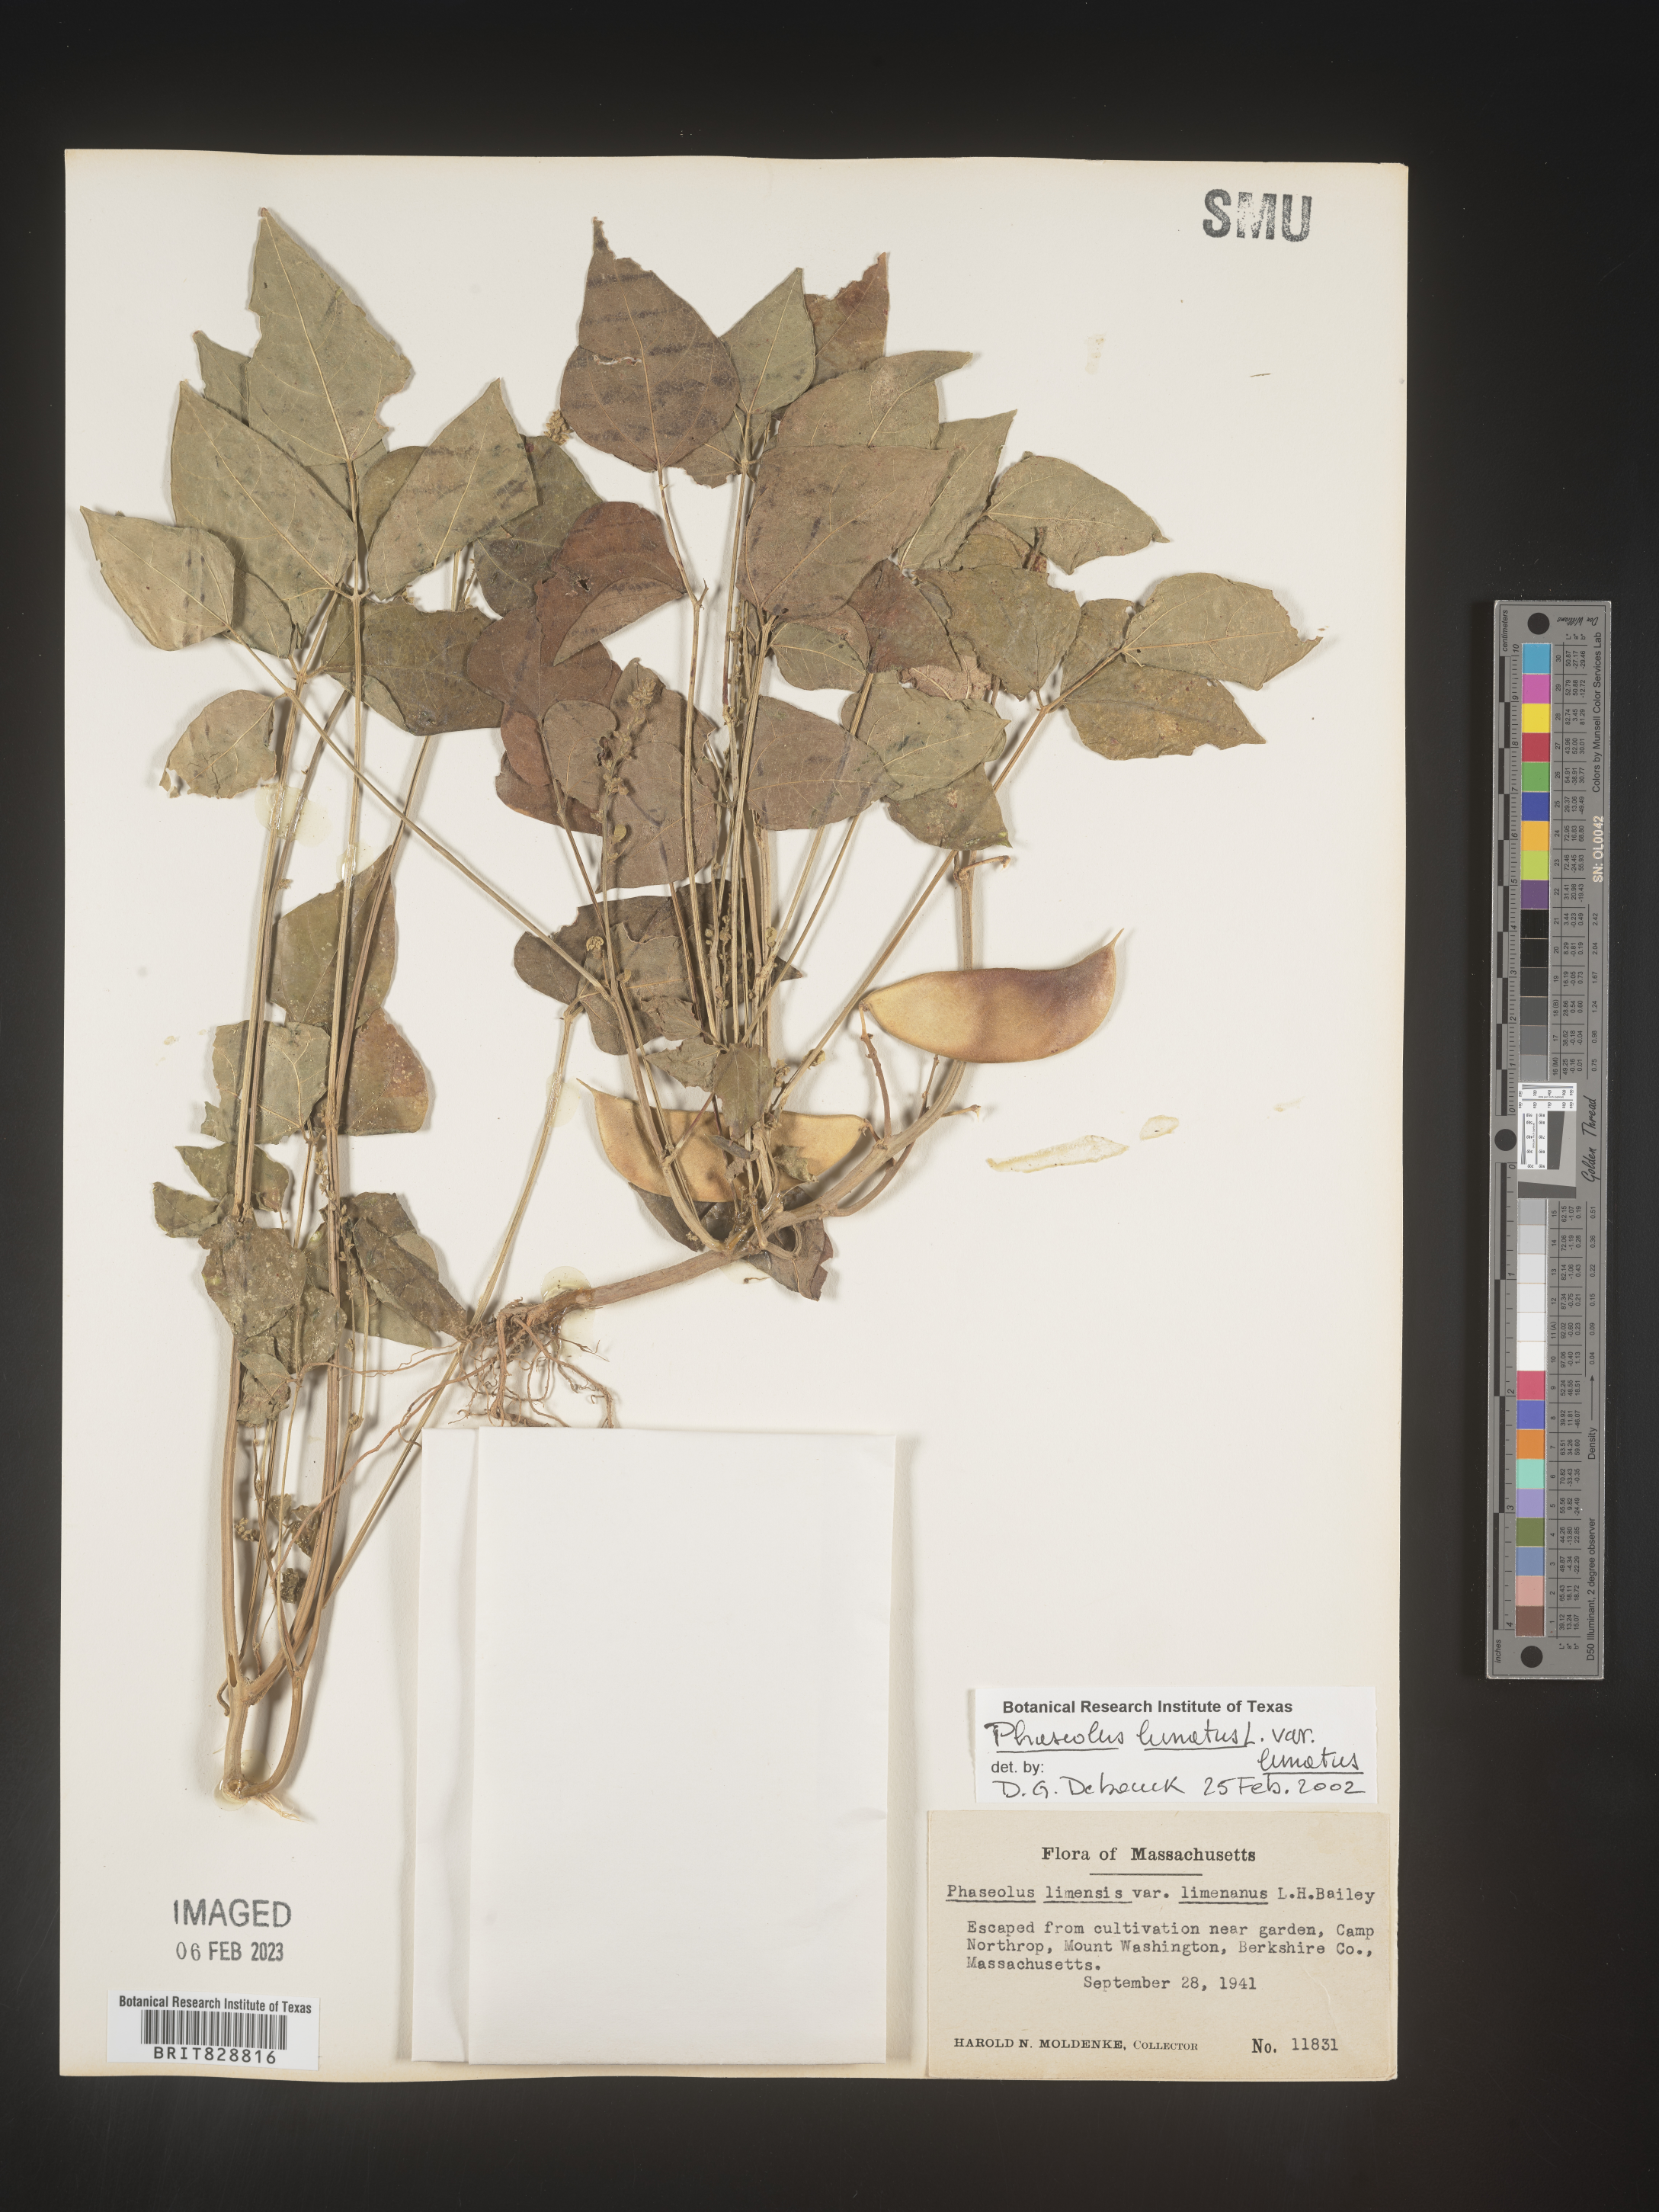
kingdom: Plantae
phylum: Tracheophyta
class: Magnoliopsida
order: Fabales
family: Fabaceae
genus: Phaseolus
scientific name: Phaseolus
